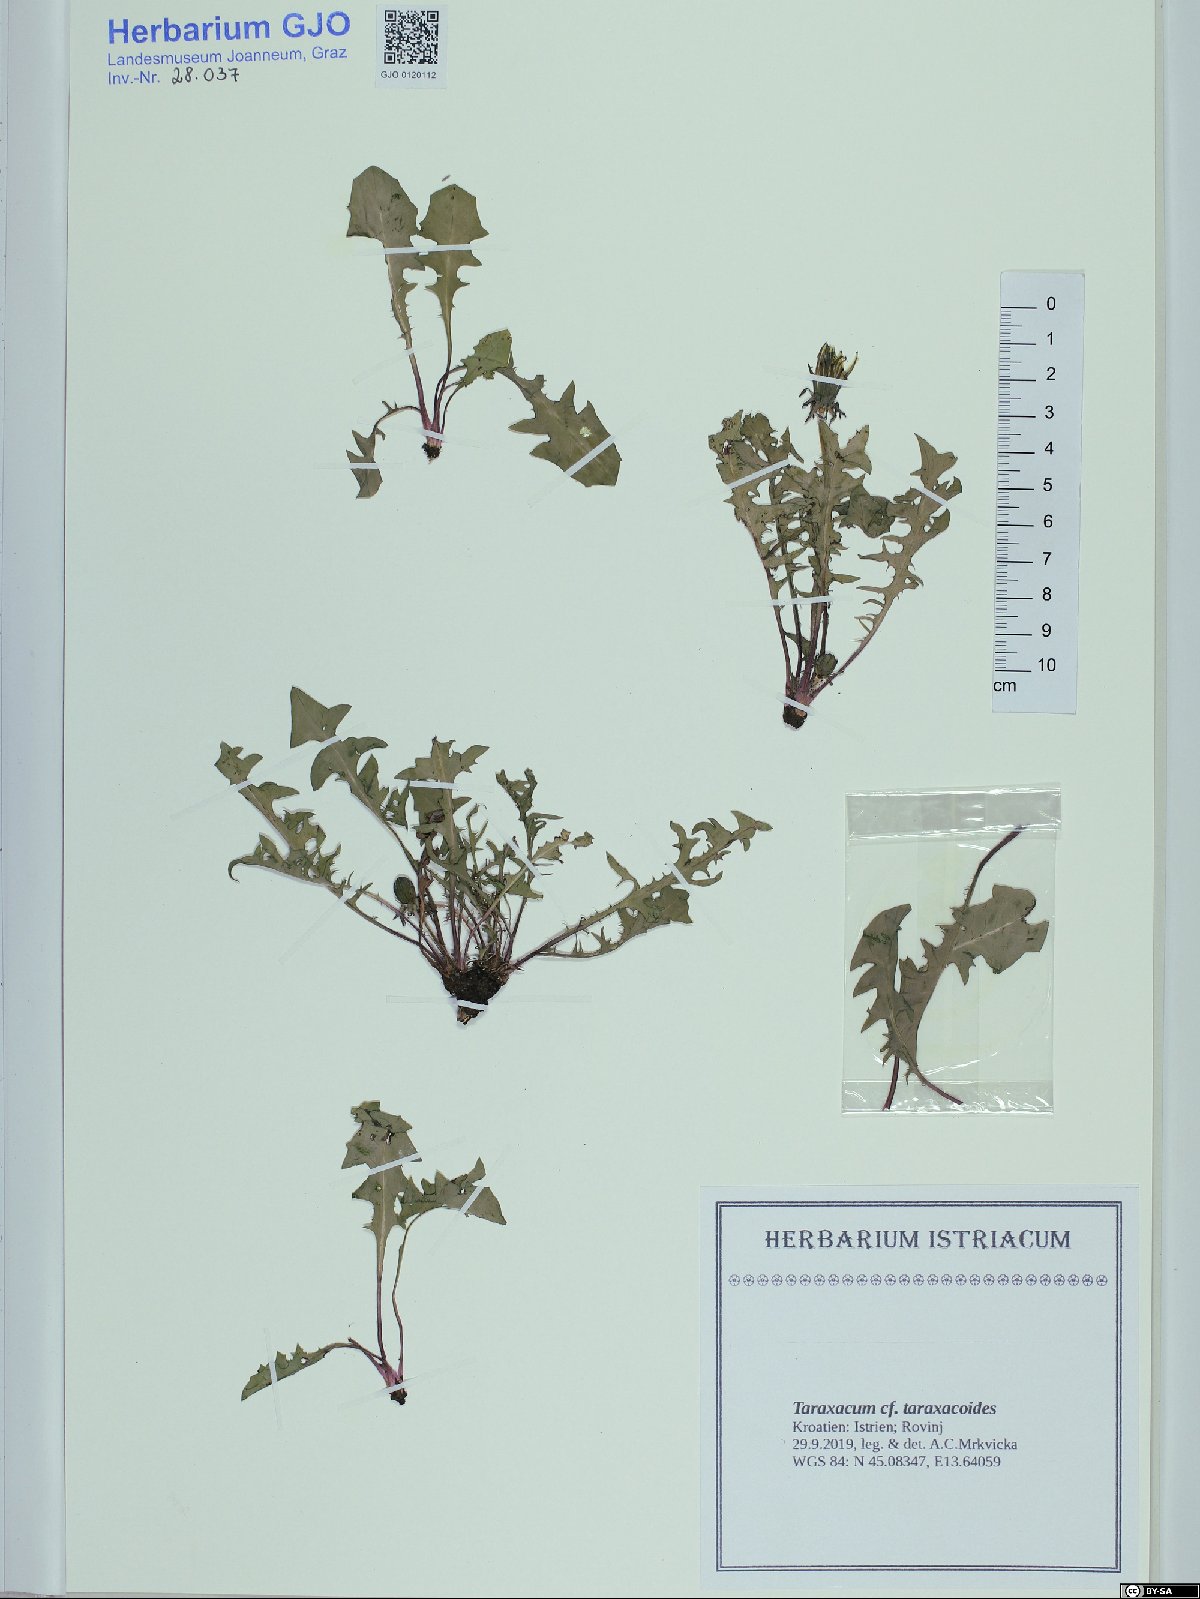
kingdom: Plantae
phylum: Tracheophyta
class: Magnoliopsida
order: Asterales
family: Asteraceae
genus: Taraxacum
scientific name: Taraxacum taraxacoides
